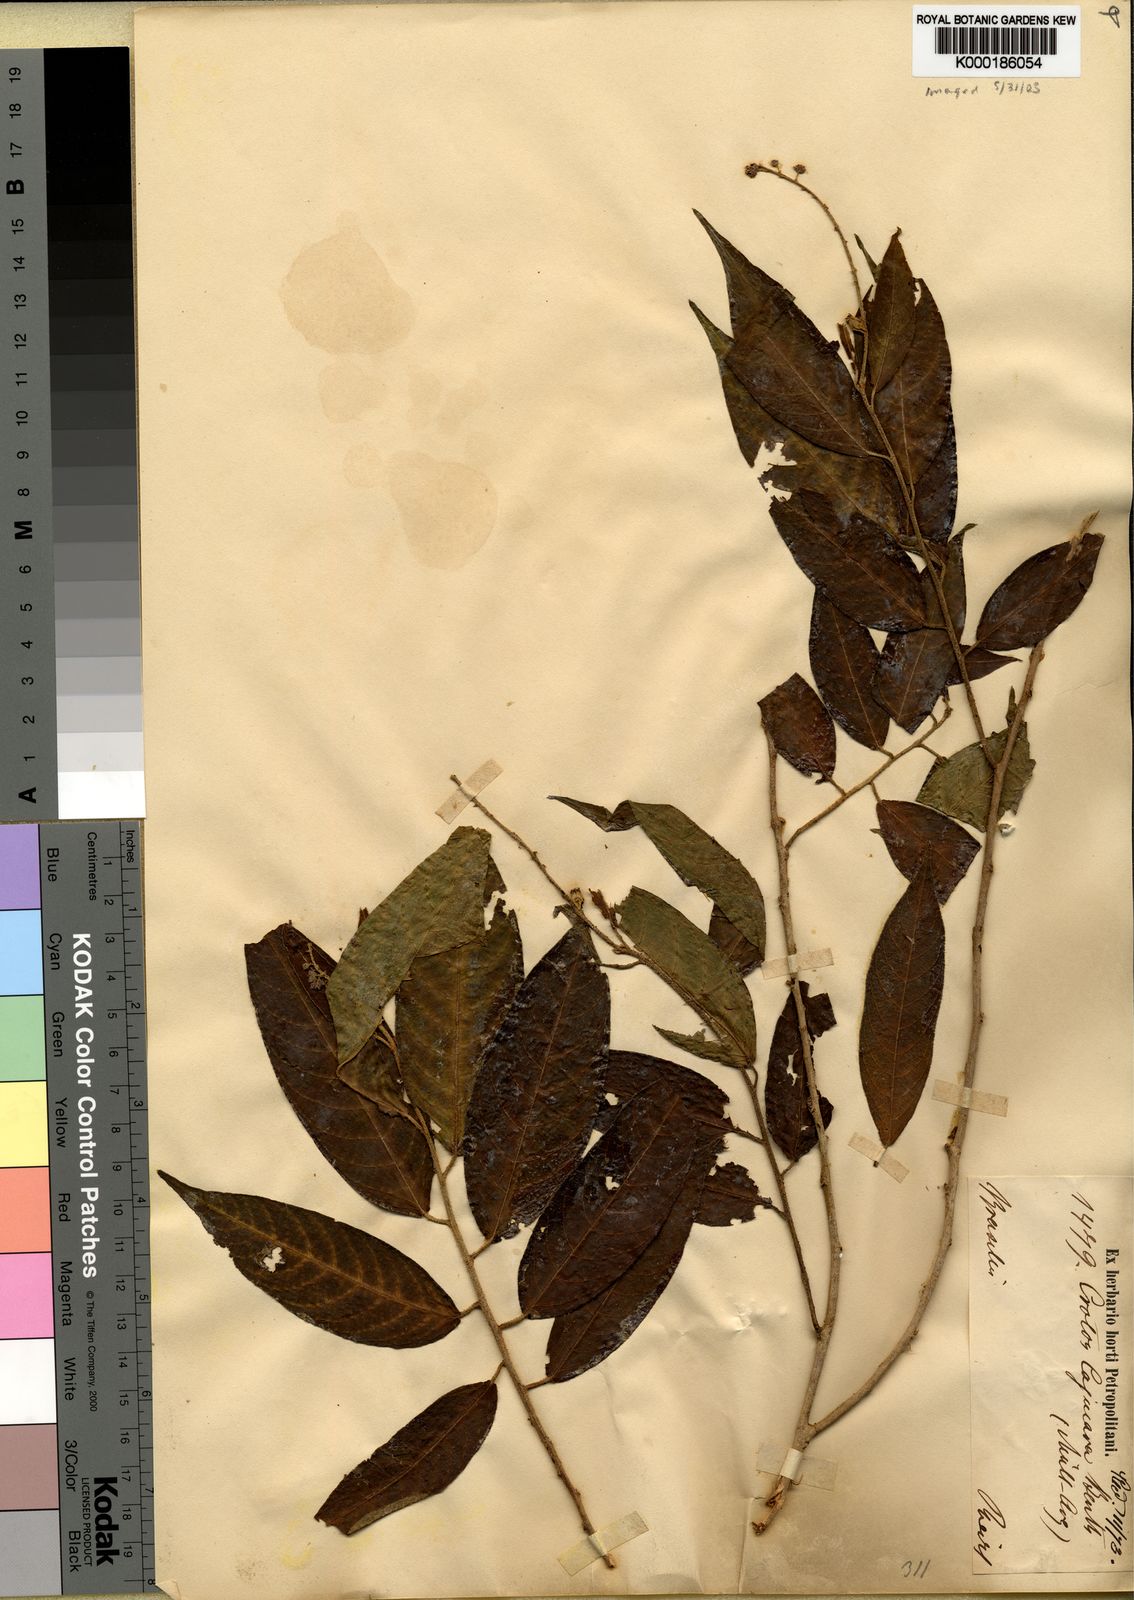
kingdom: Plantae
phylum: Tracheophyta
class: Magnoliopsida
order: Malpighiales
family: Euphorbiaceae
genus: Croton
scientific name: Croton cajucara
